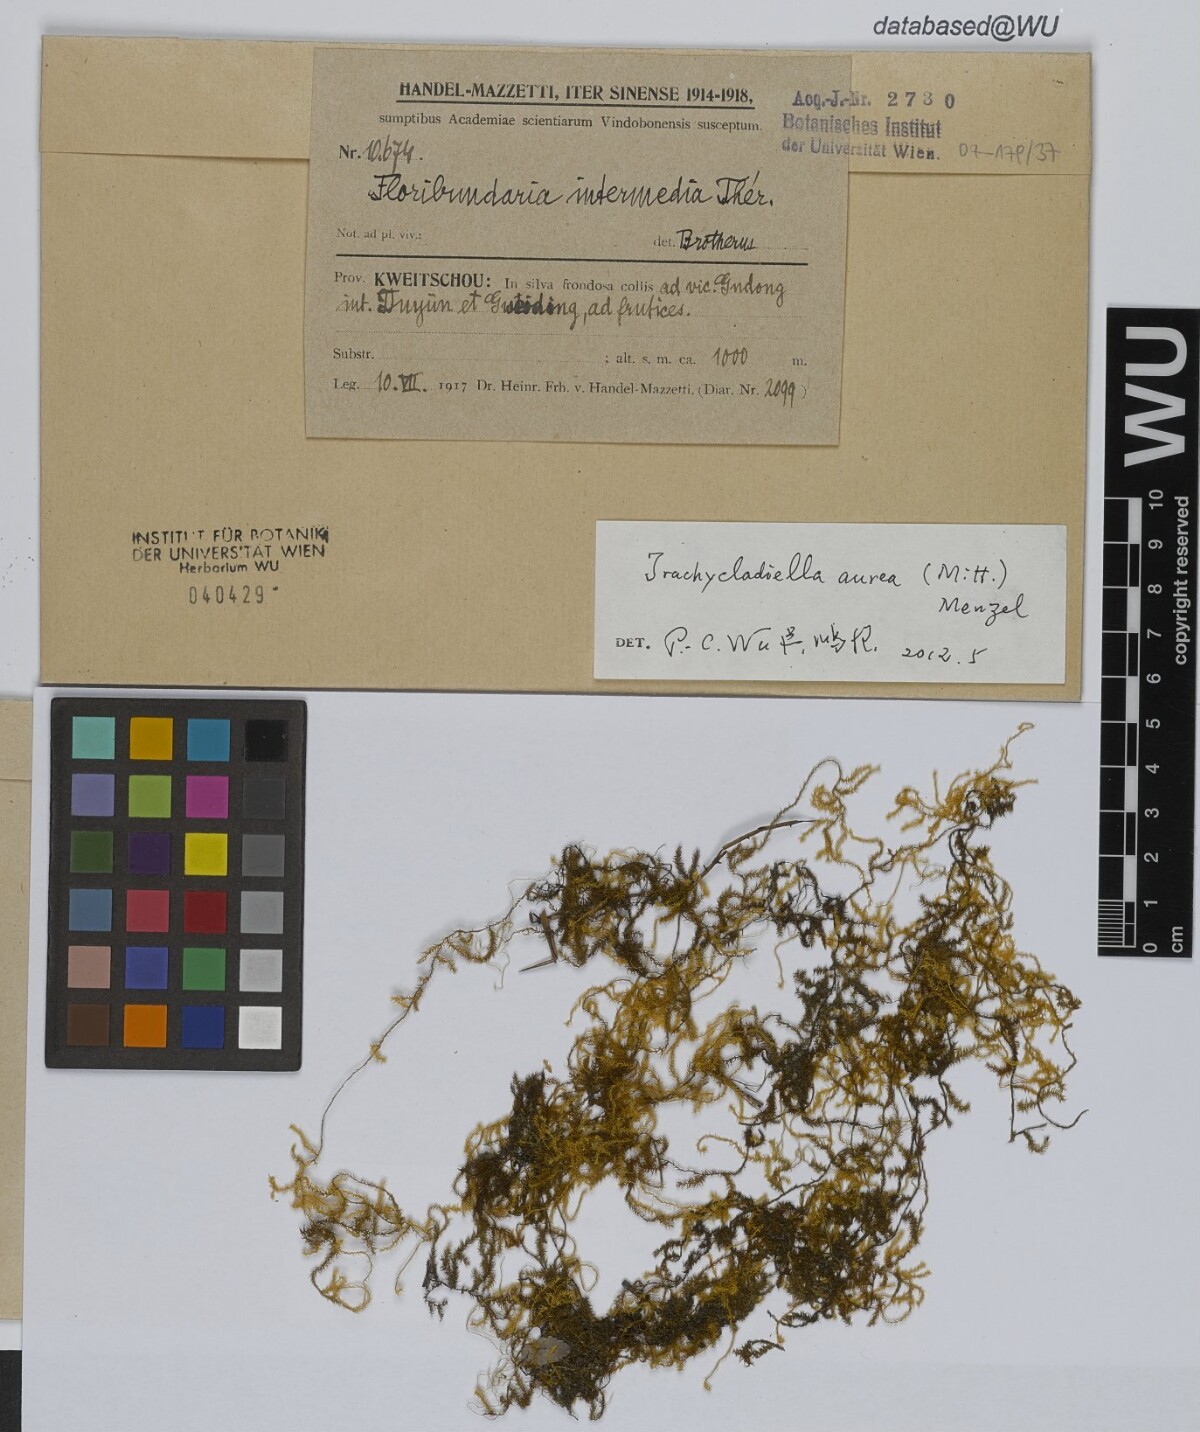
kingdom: Plantae
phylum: Bryophyta
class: Bryopsida
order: Hypnales
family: Meteoriaceae
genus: Trachycladiella
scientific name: Trachycladiella aurea
